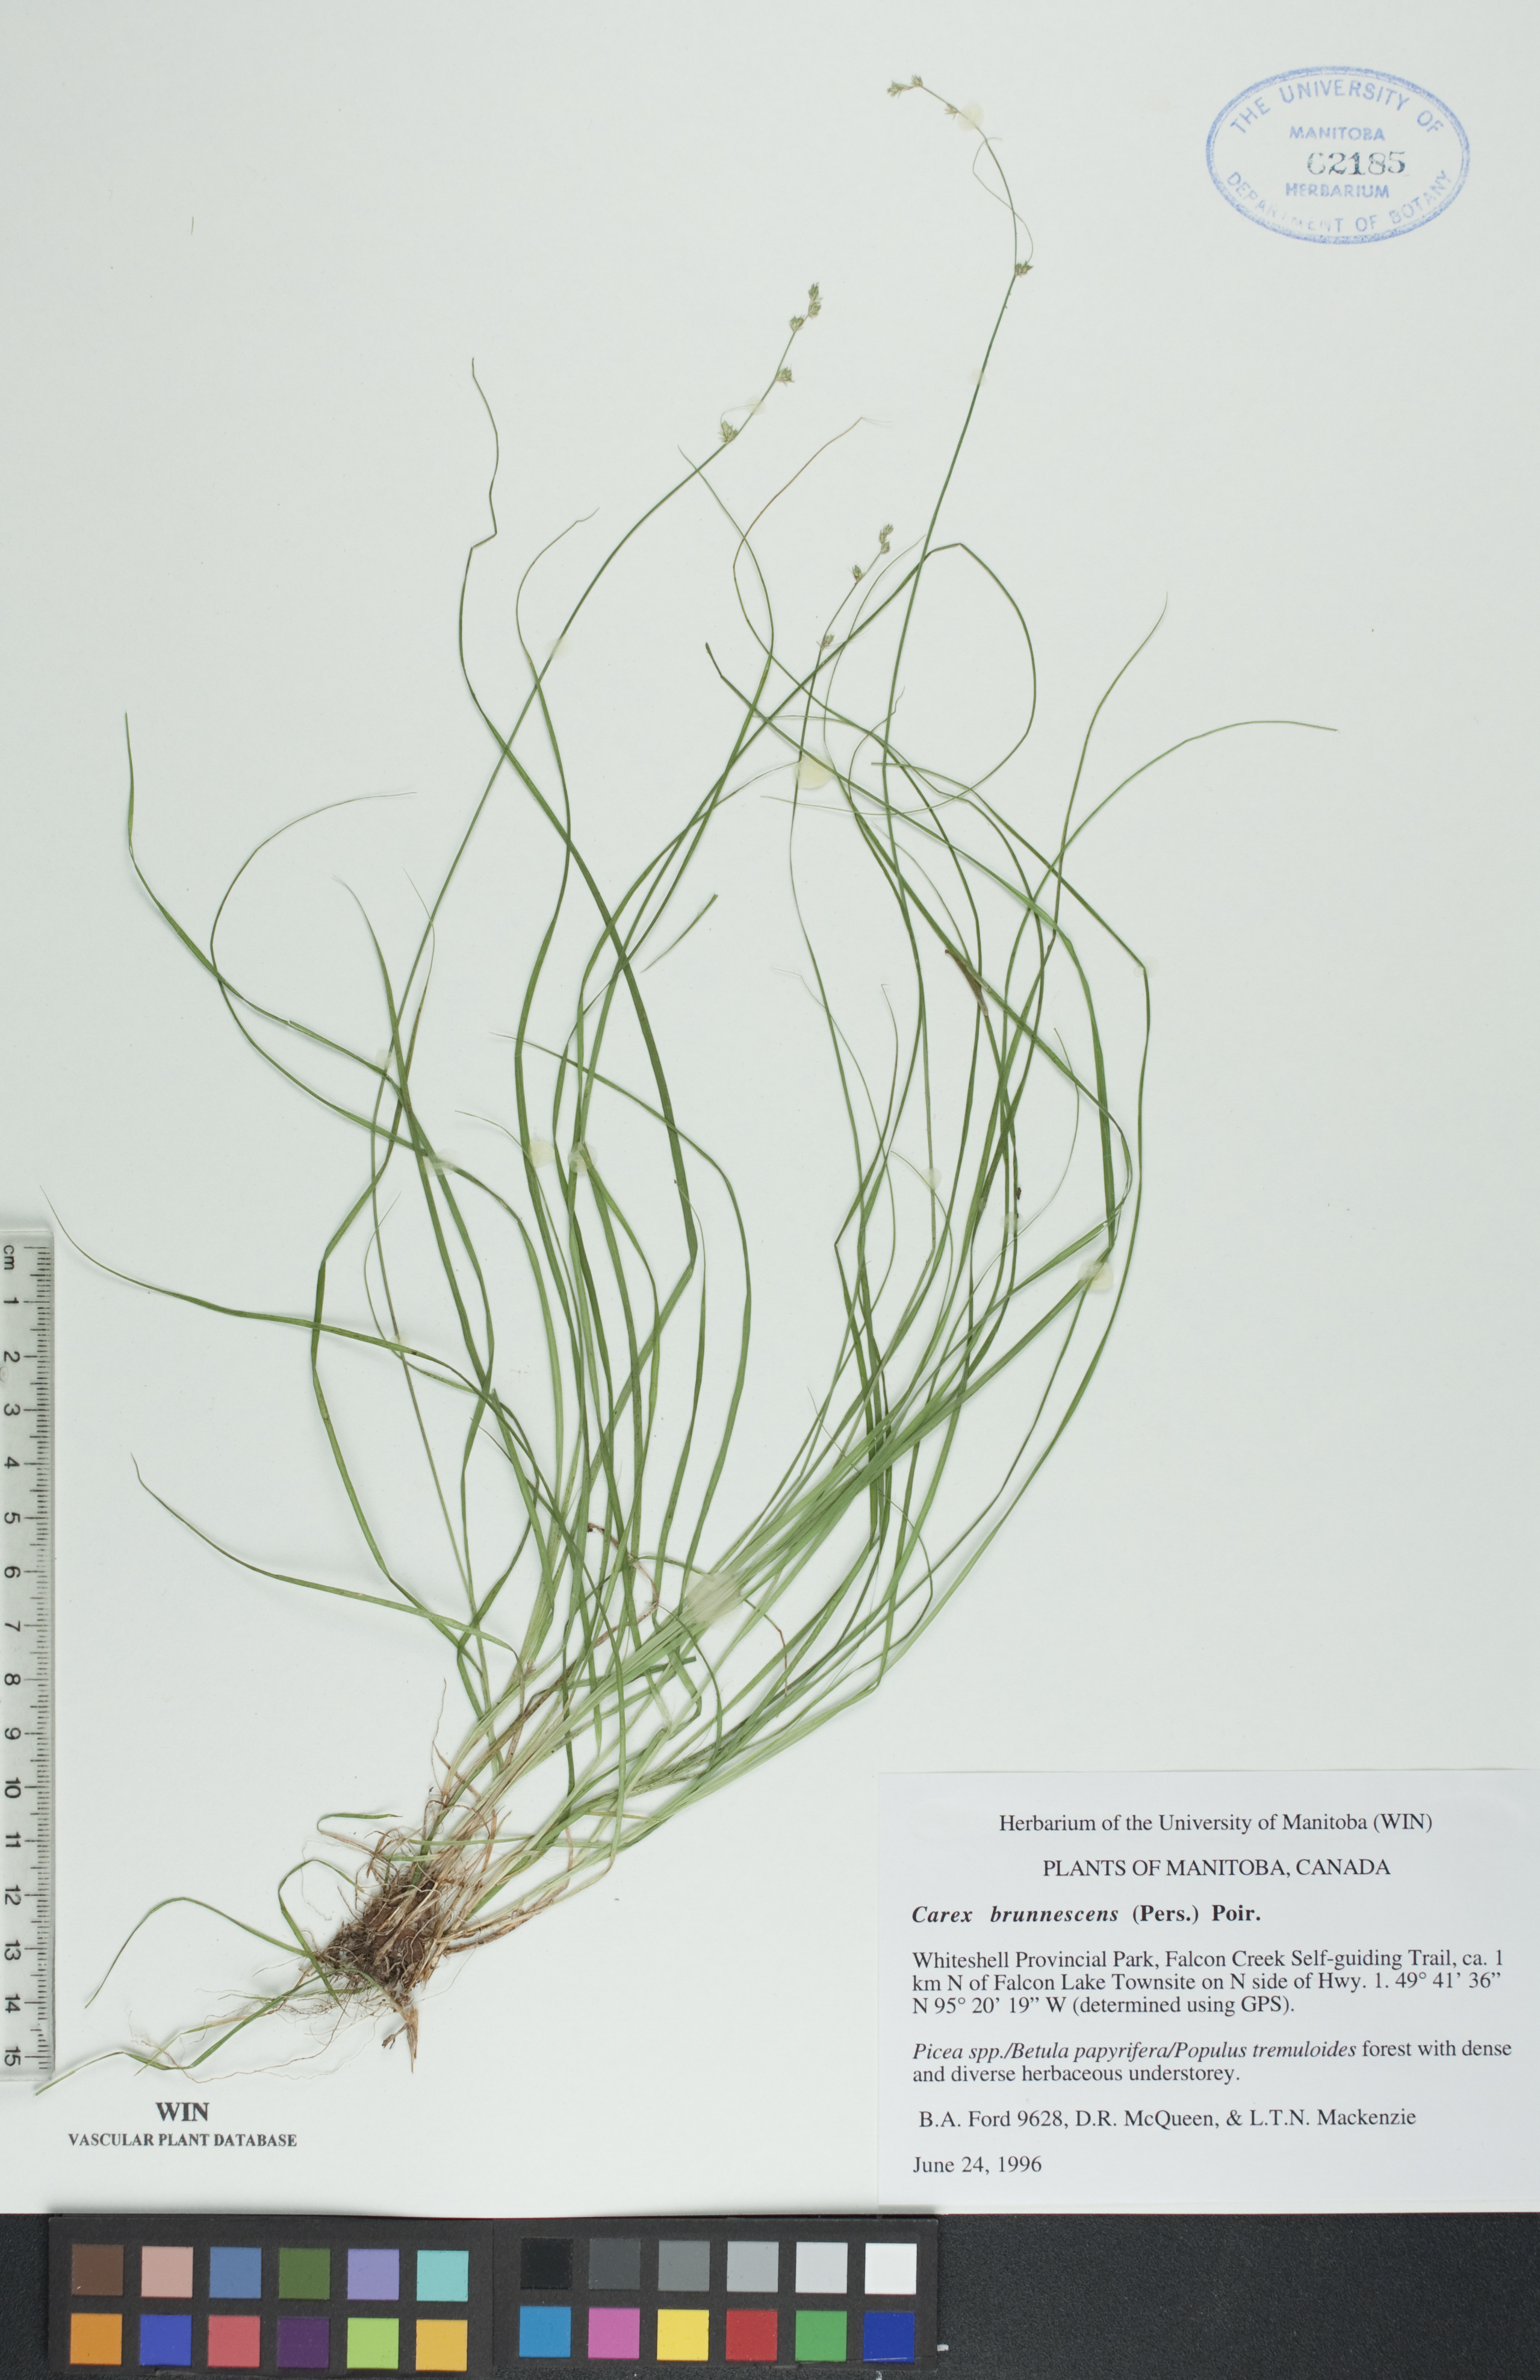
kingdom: Plantae
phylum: Tracheophyta
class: Liliopsida
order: Poales
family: Cyperaceae
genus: Carex
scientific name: Carex brunnescens
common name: Brown sedge
